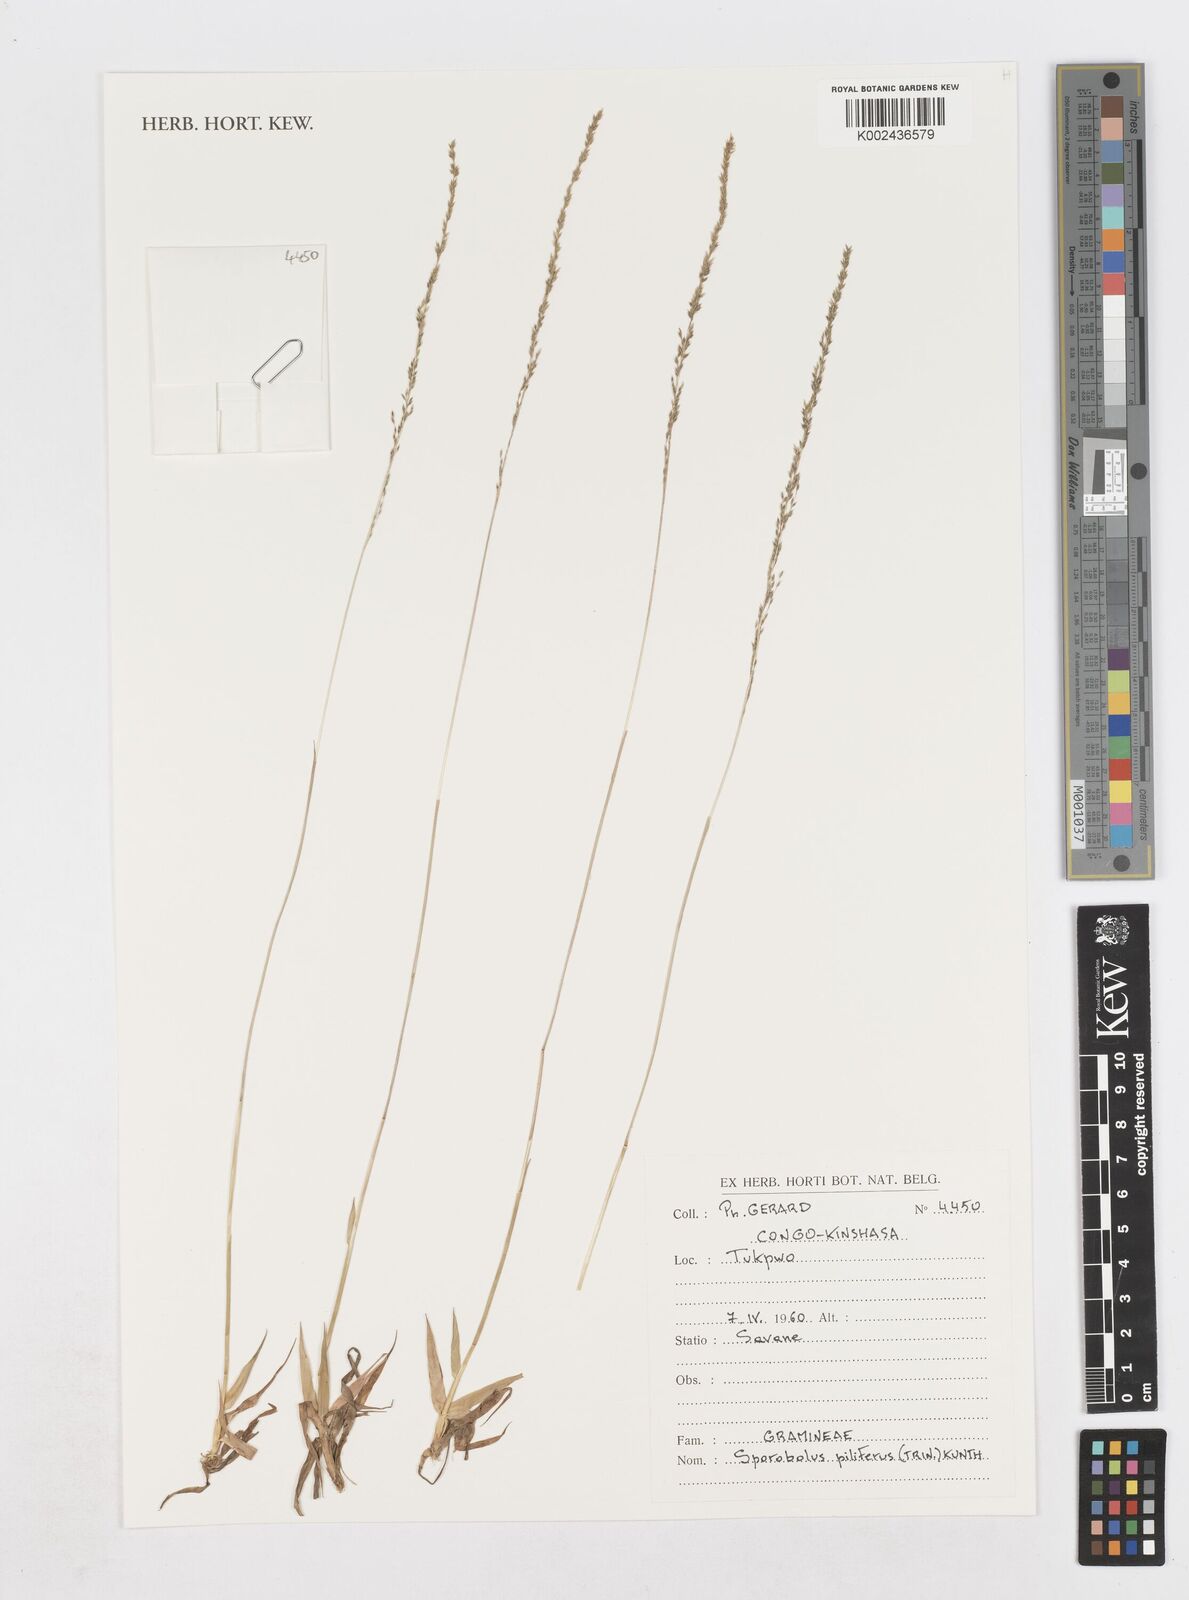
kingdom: Plantae
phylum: Tracheophyta
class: Liliopsida
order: Poales
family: Poaceae
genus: Sporobolus
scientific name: Sporobolus pilifer
